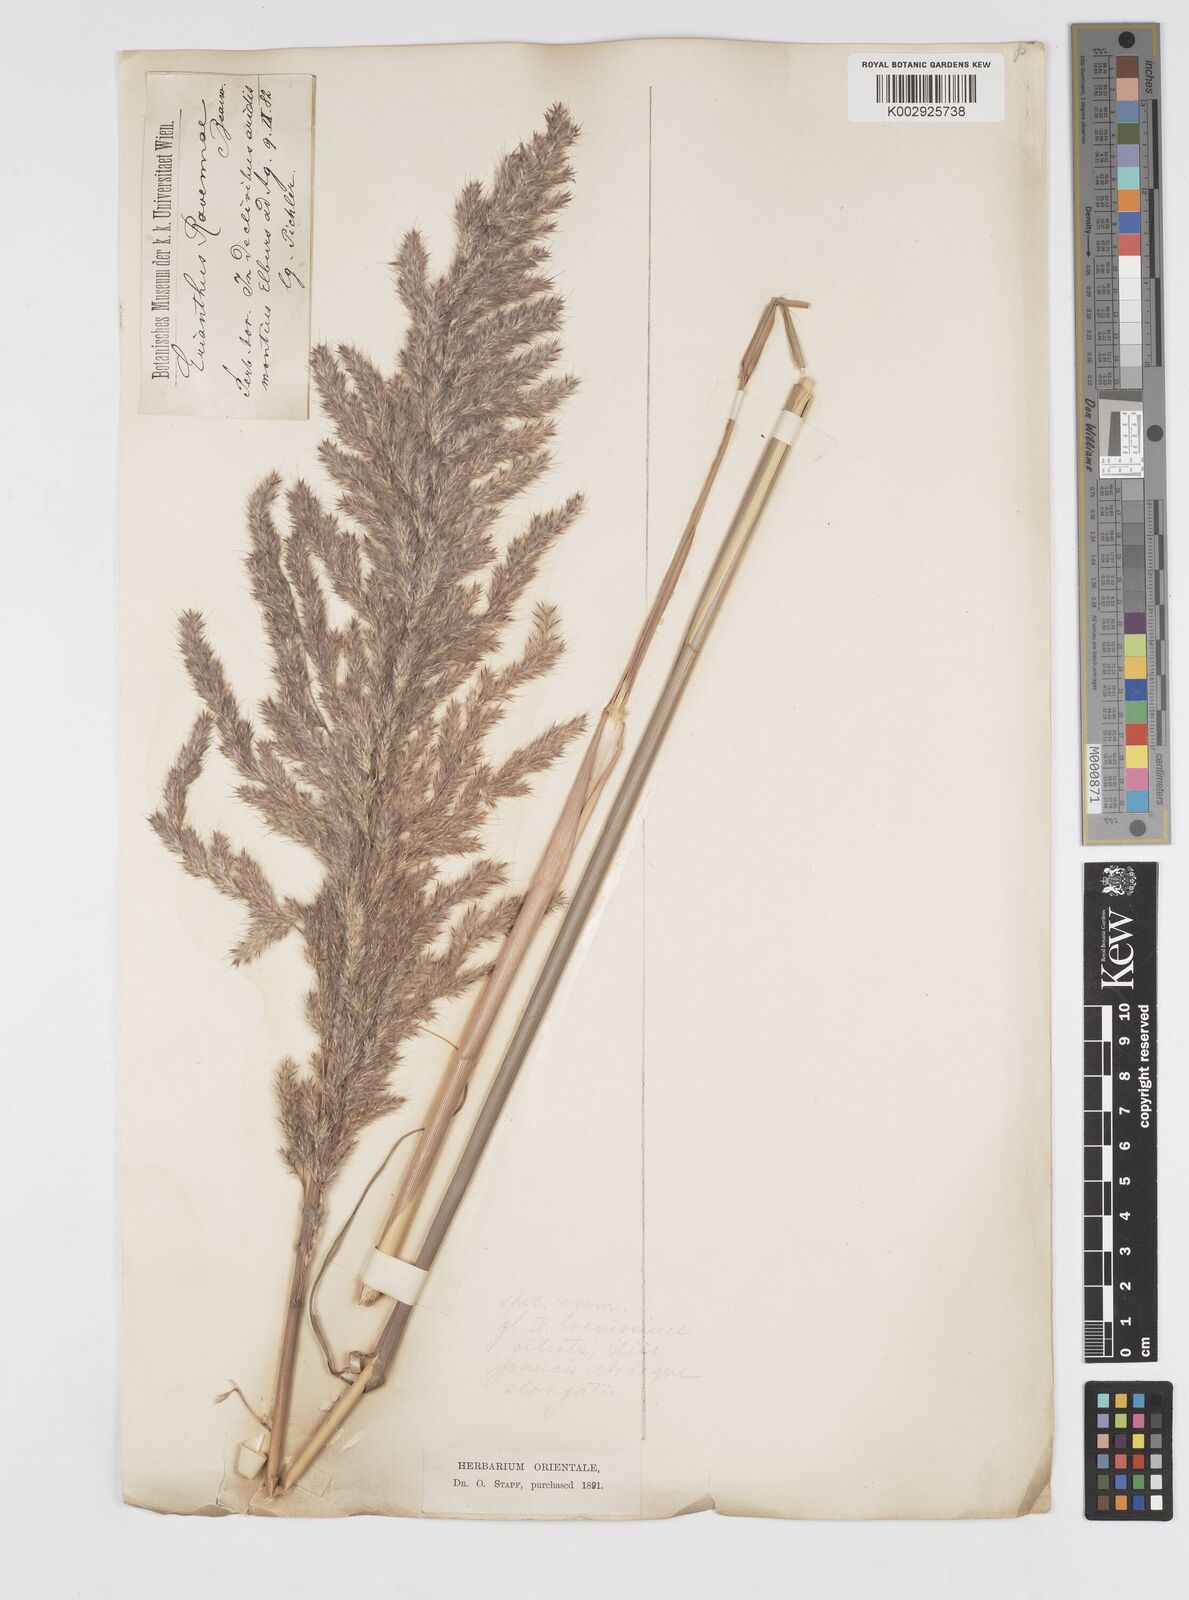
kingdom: Plantae
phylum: Tracheophyta
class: Liliopsida
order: Poales
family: Poaceae
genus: Tripidium
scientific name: Tripidium ravennae
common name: Ravenna grass
